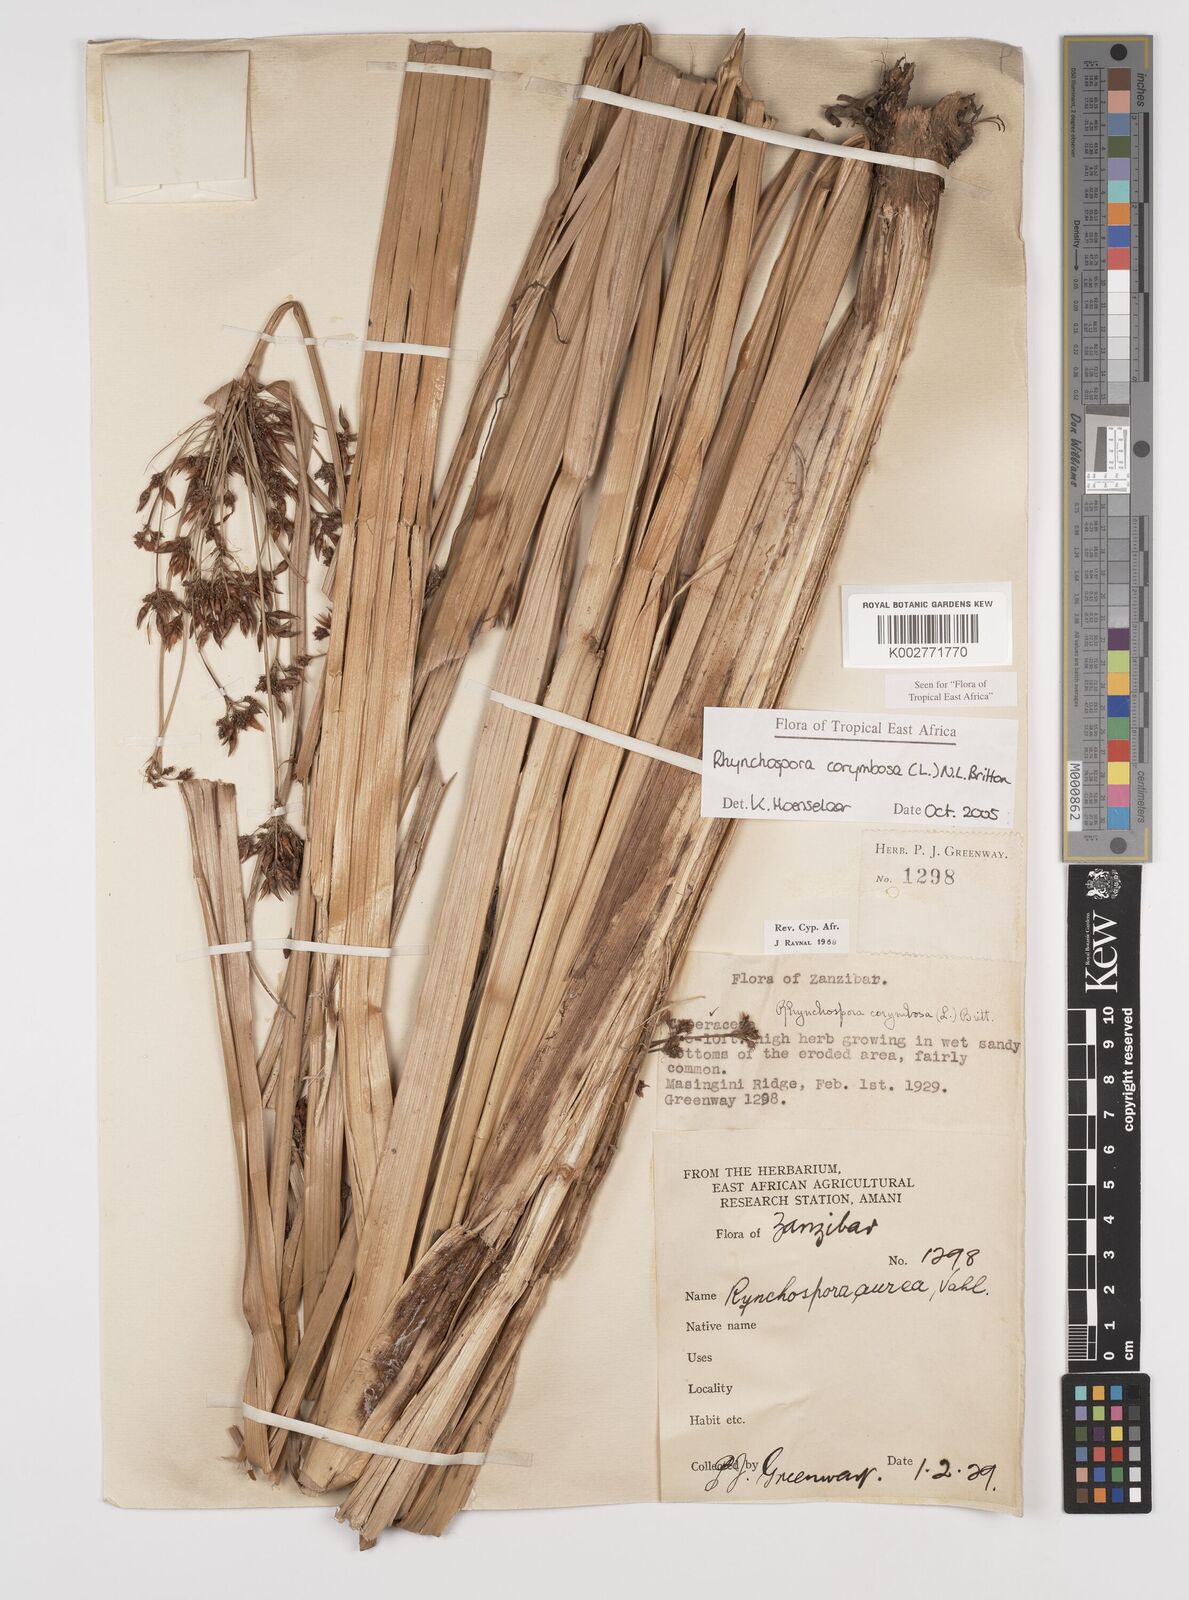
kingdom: Plantae
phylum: Tracheophyta
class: Liliopsida
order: Poales
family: Cyperaceae
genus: Rhynchospora
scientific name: Rhynchospora corymbosa
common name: Golden beak sedge
